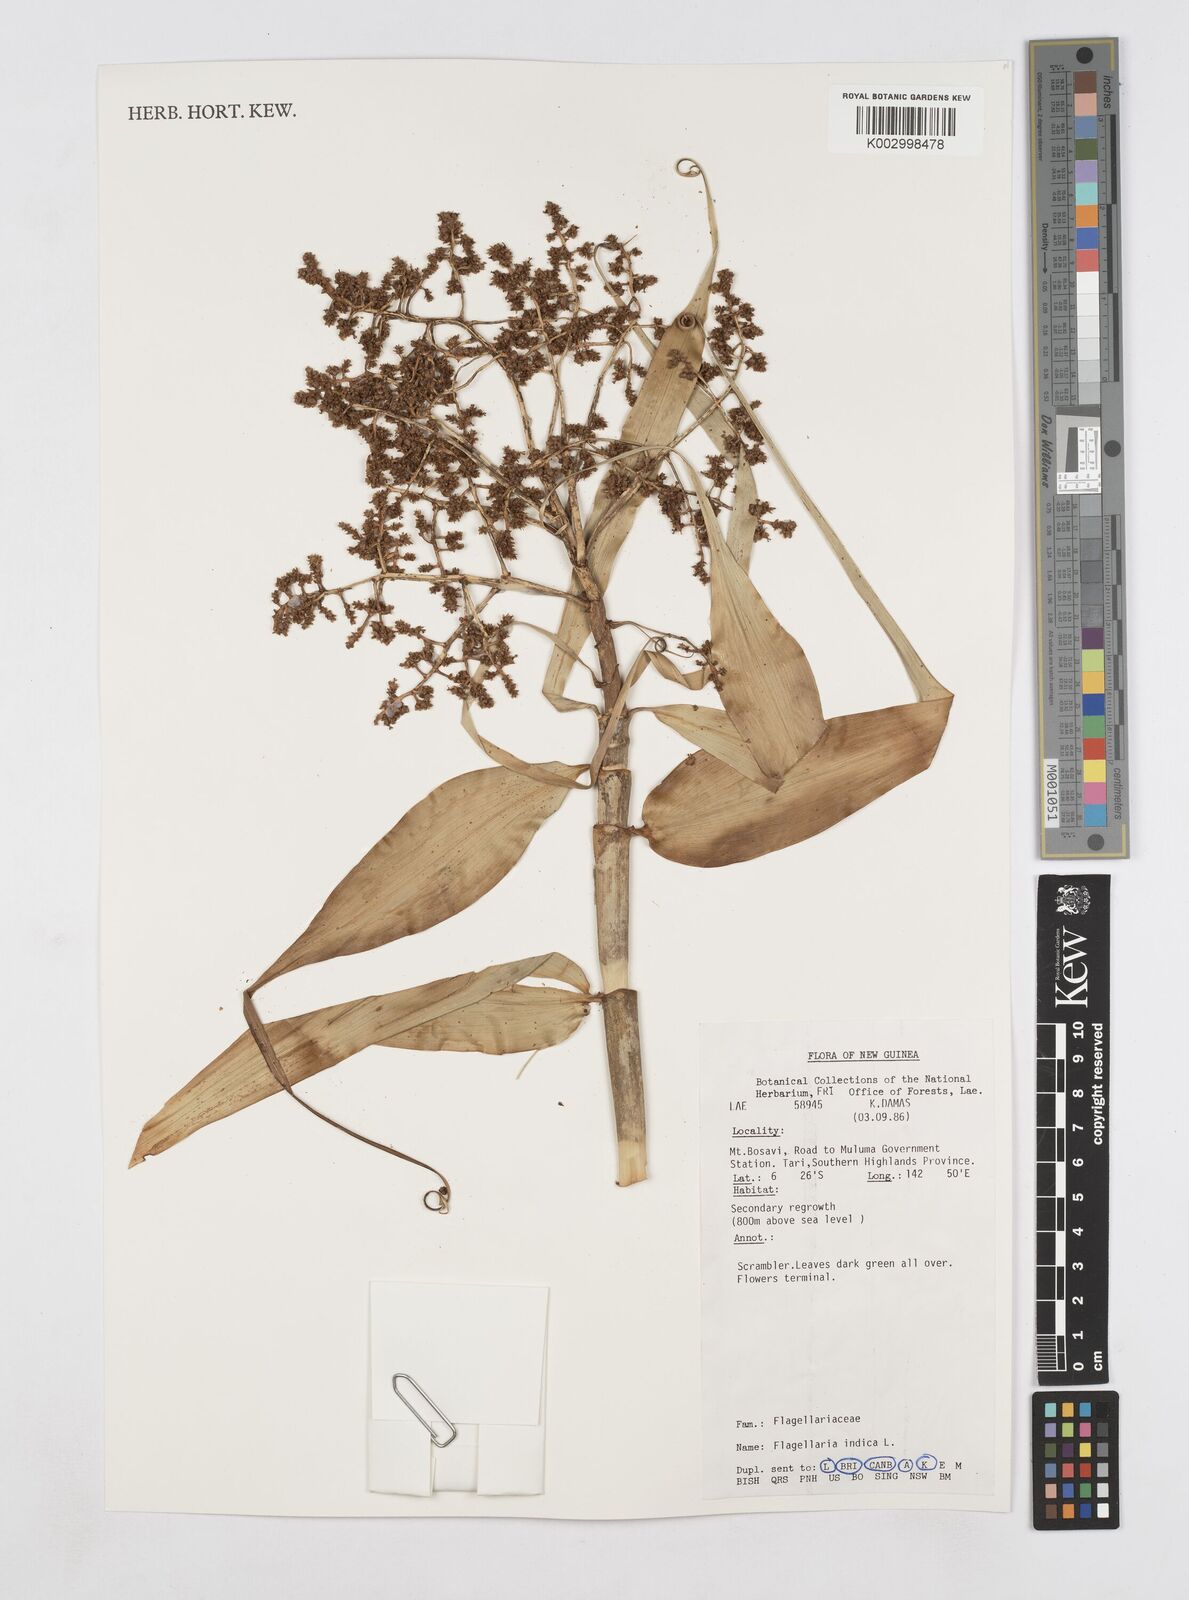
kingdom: Plantae
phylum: Tracheophyta
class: Liliopsida
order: Poales
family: Flagellariaceae
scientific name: Flagellariaceae
